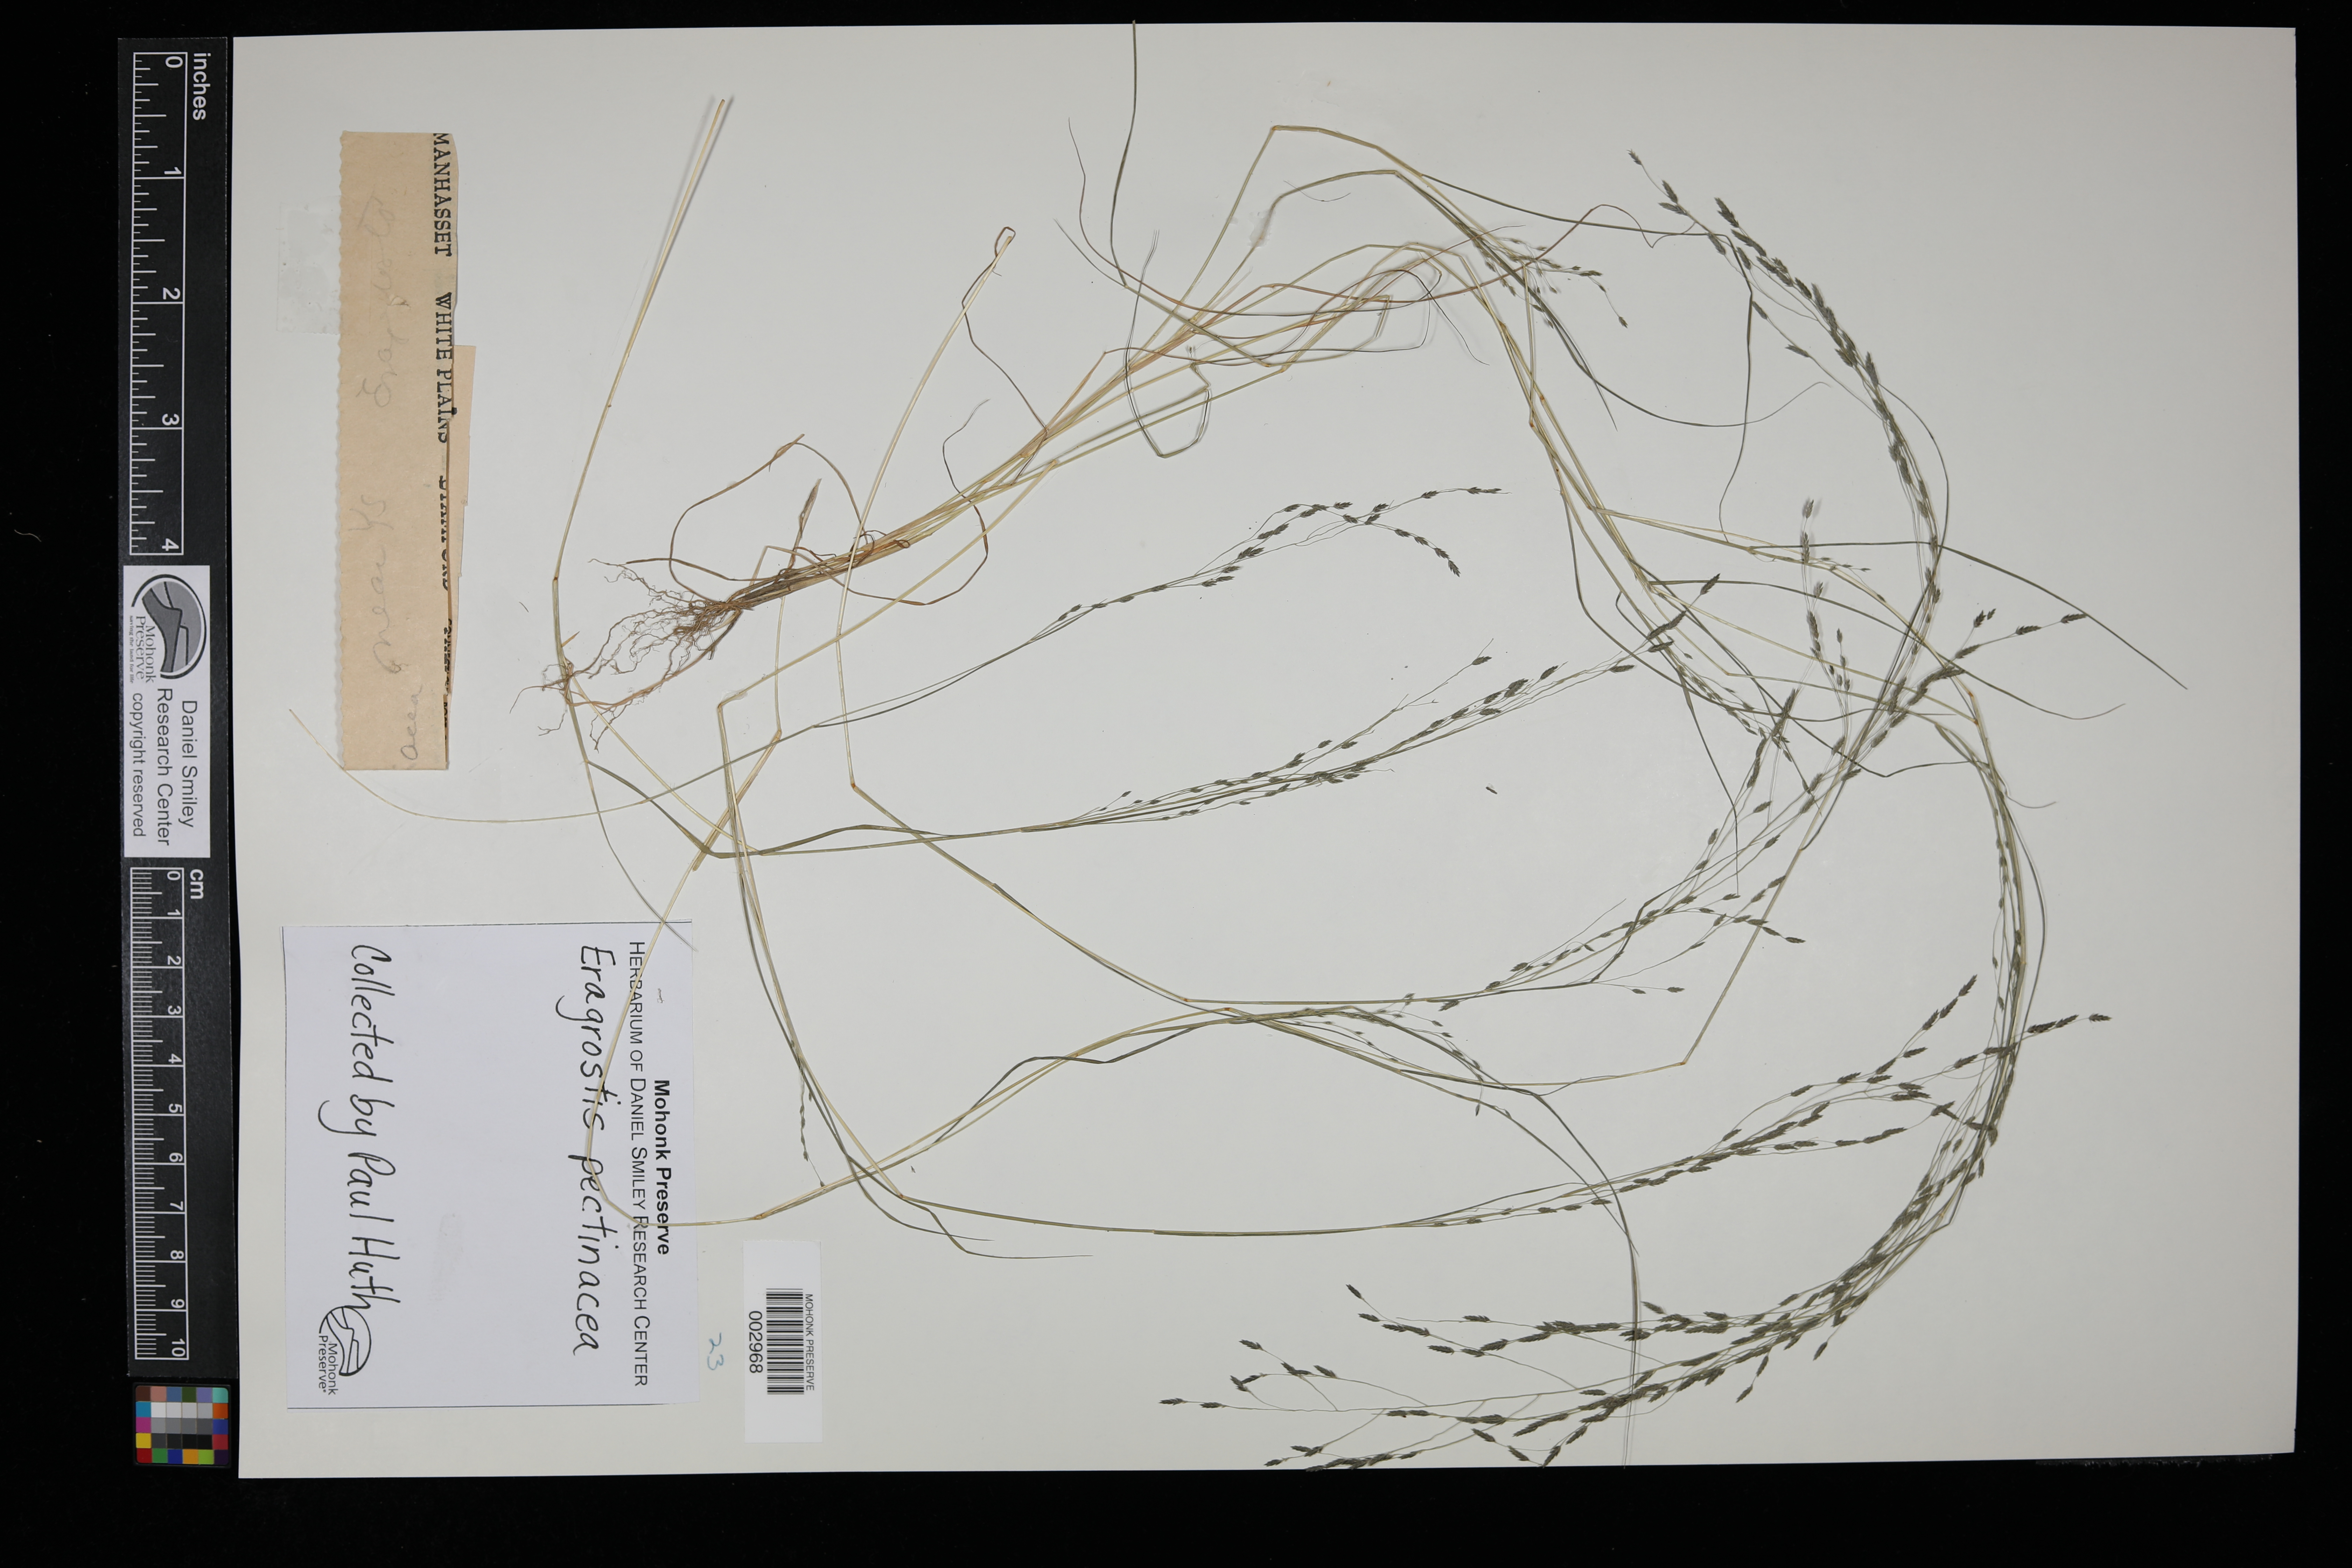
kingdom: Plantae
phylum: Tracheophyta
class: Liliopsida
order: Poales
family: Poaceae
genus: Eragrostis
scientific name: Eragrostis pectinacea
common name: Tufted lovegrass
